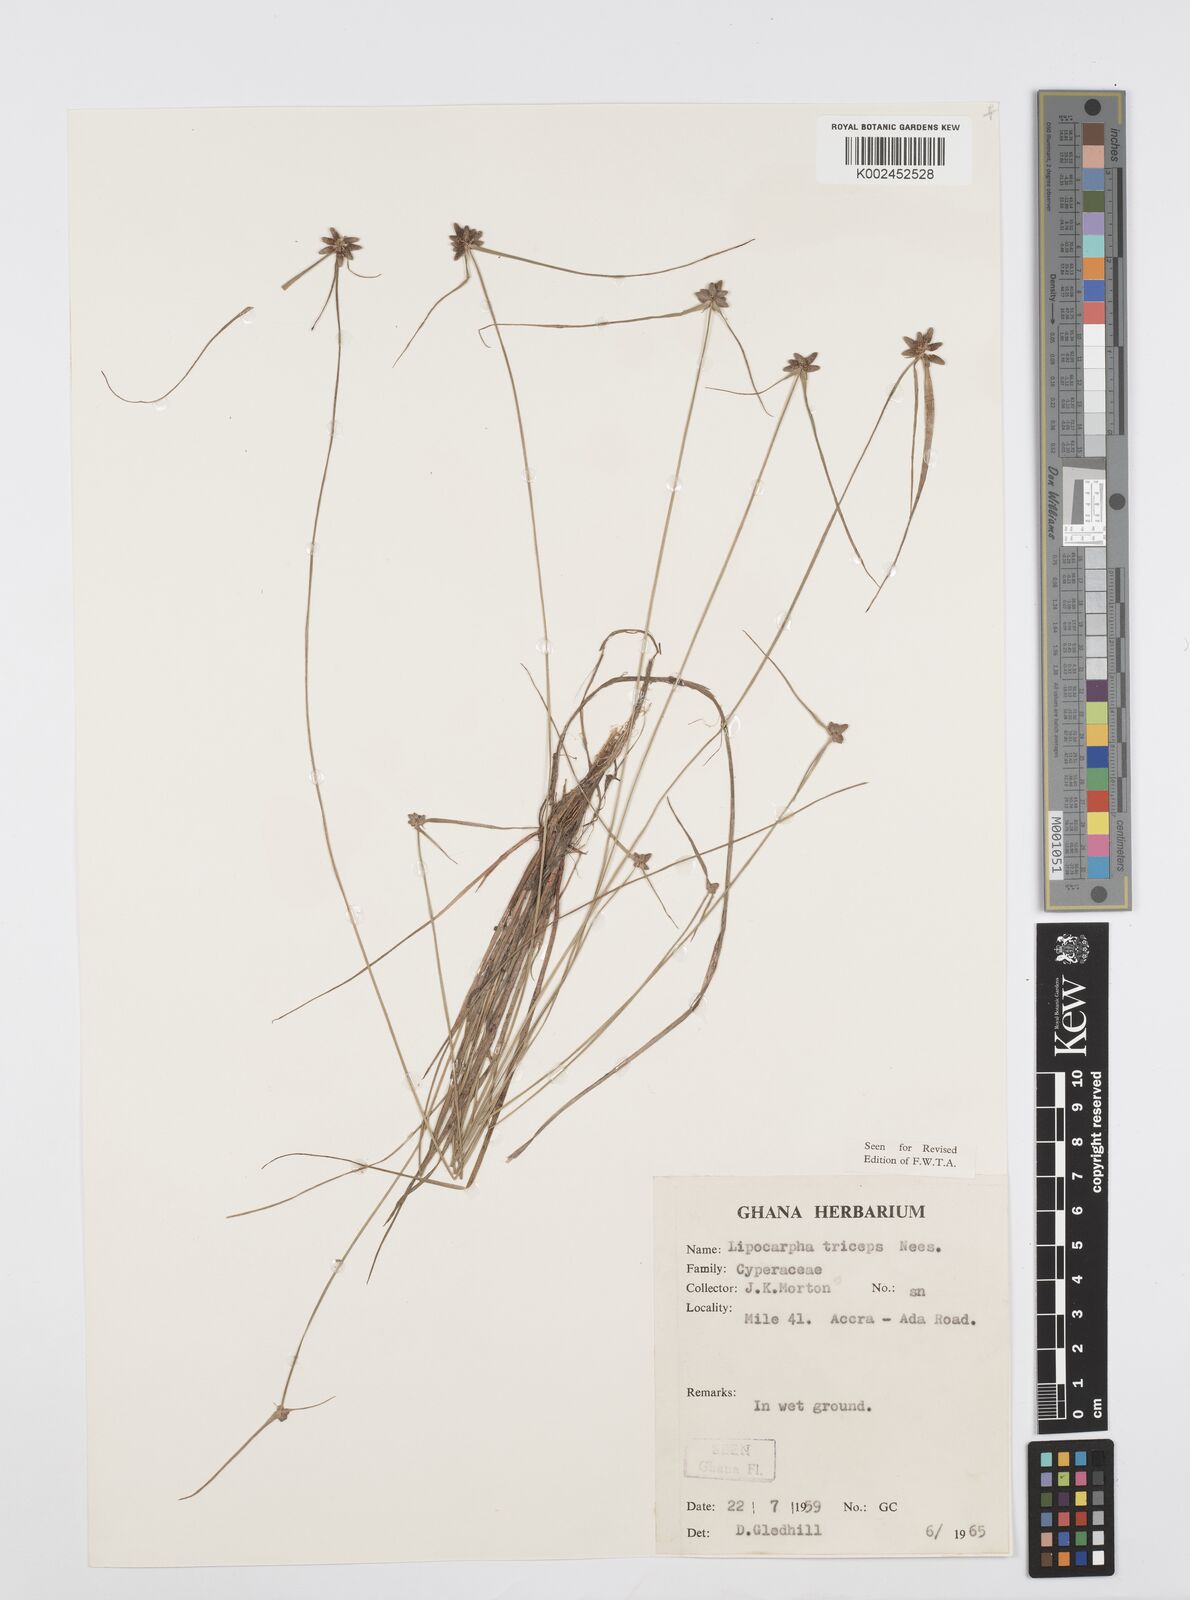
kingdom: Plantae
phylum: Tracheophyta
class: Liliopsida
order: Poales
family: Cyperaceae
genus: Cyperus
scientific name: Cyperus filiformis
